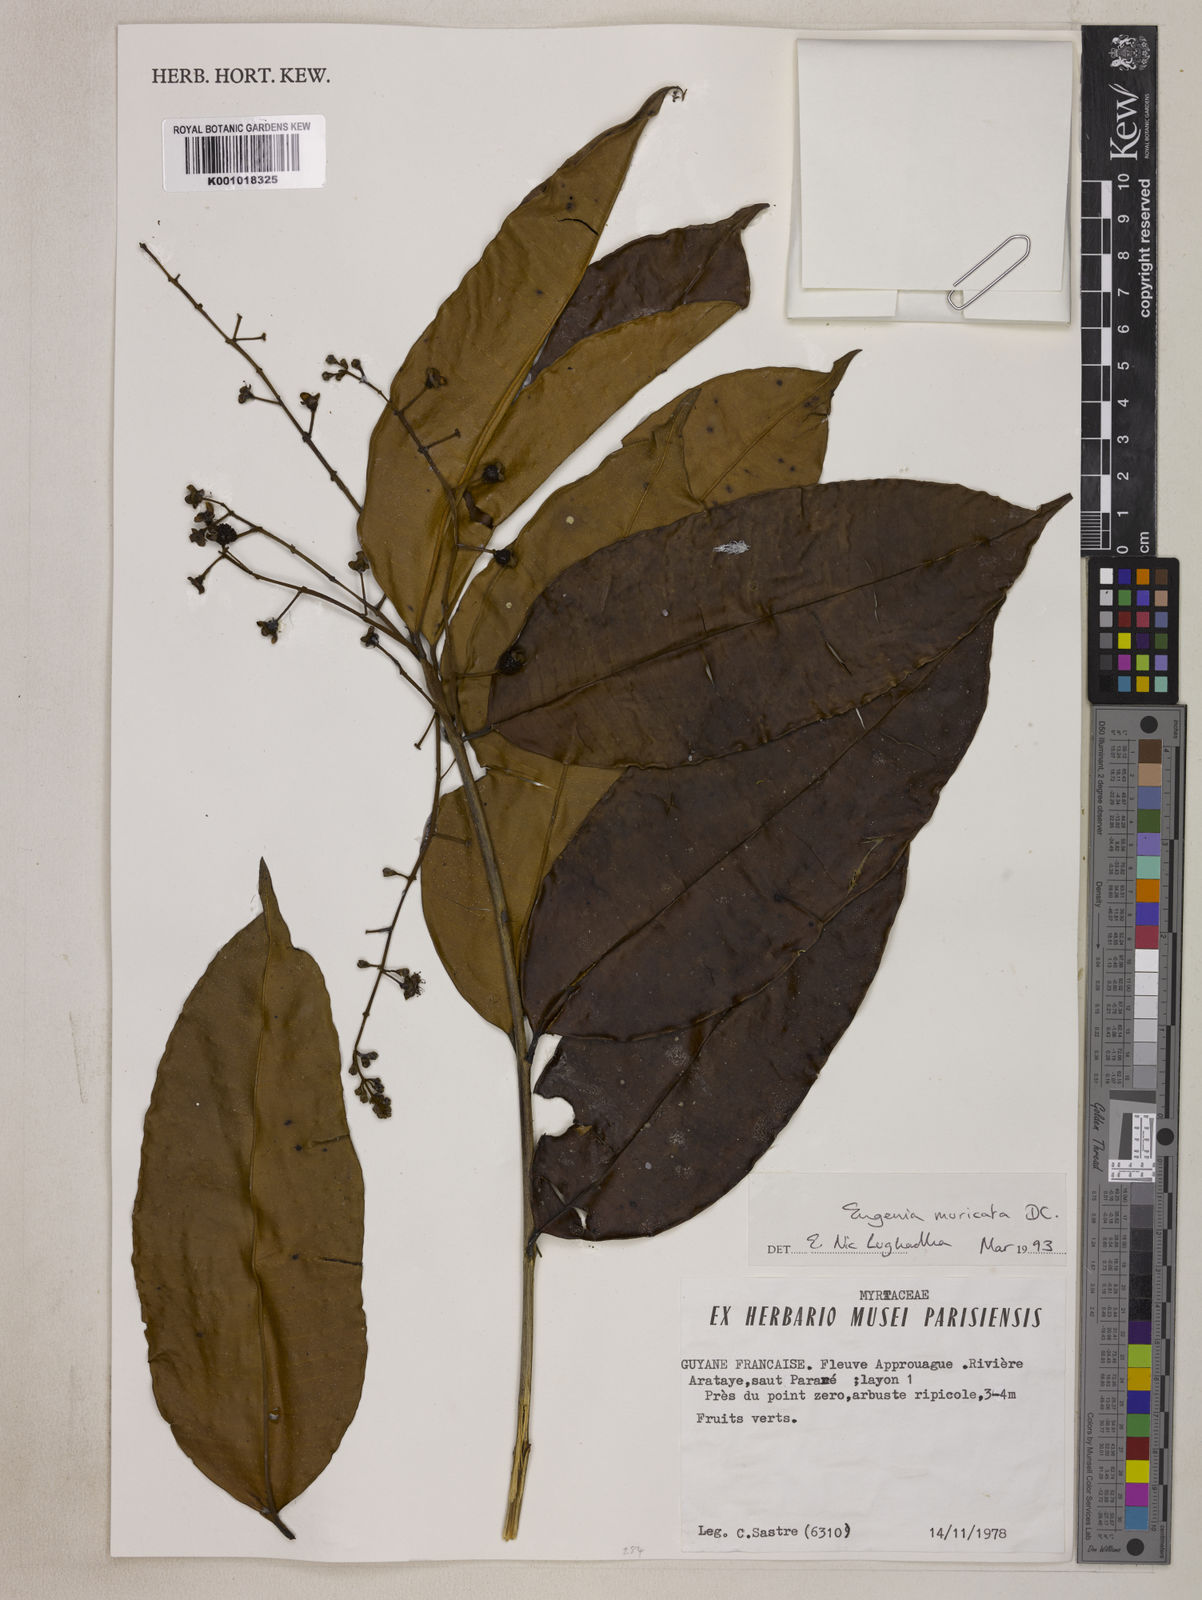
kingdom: Plantae
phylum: Tracheophyta
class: Magnoliopsida
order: Myrtales
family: Myrtaceae
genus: Eugenia
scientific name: Eugenia muricata
